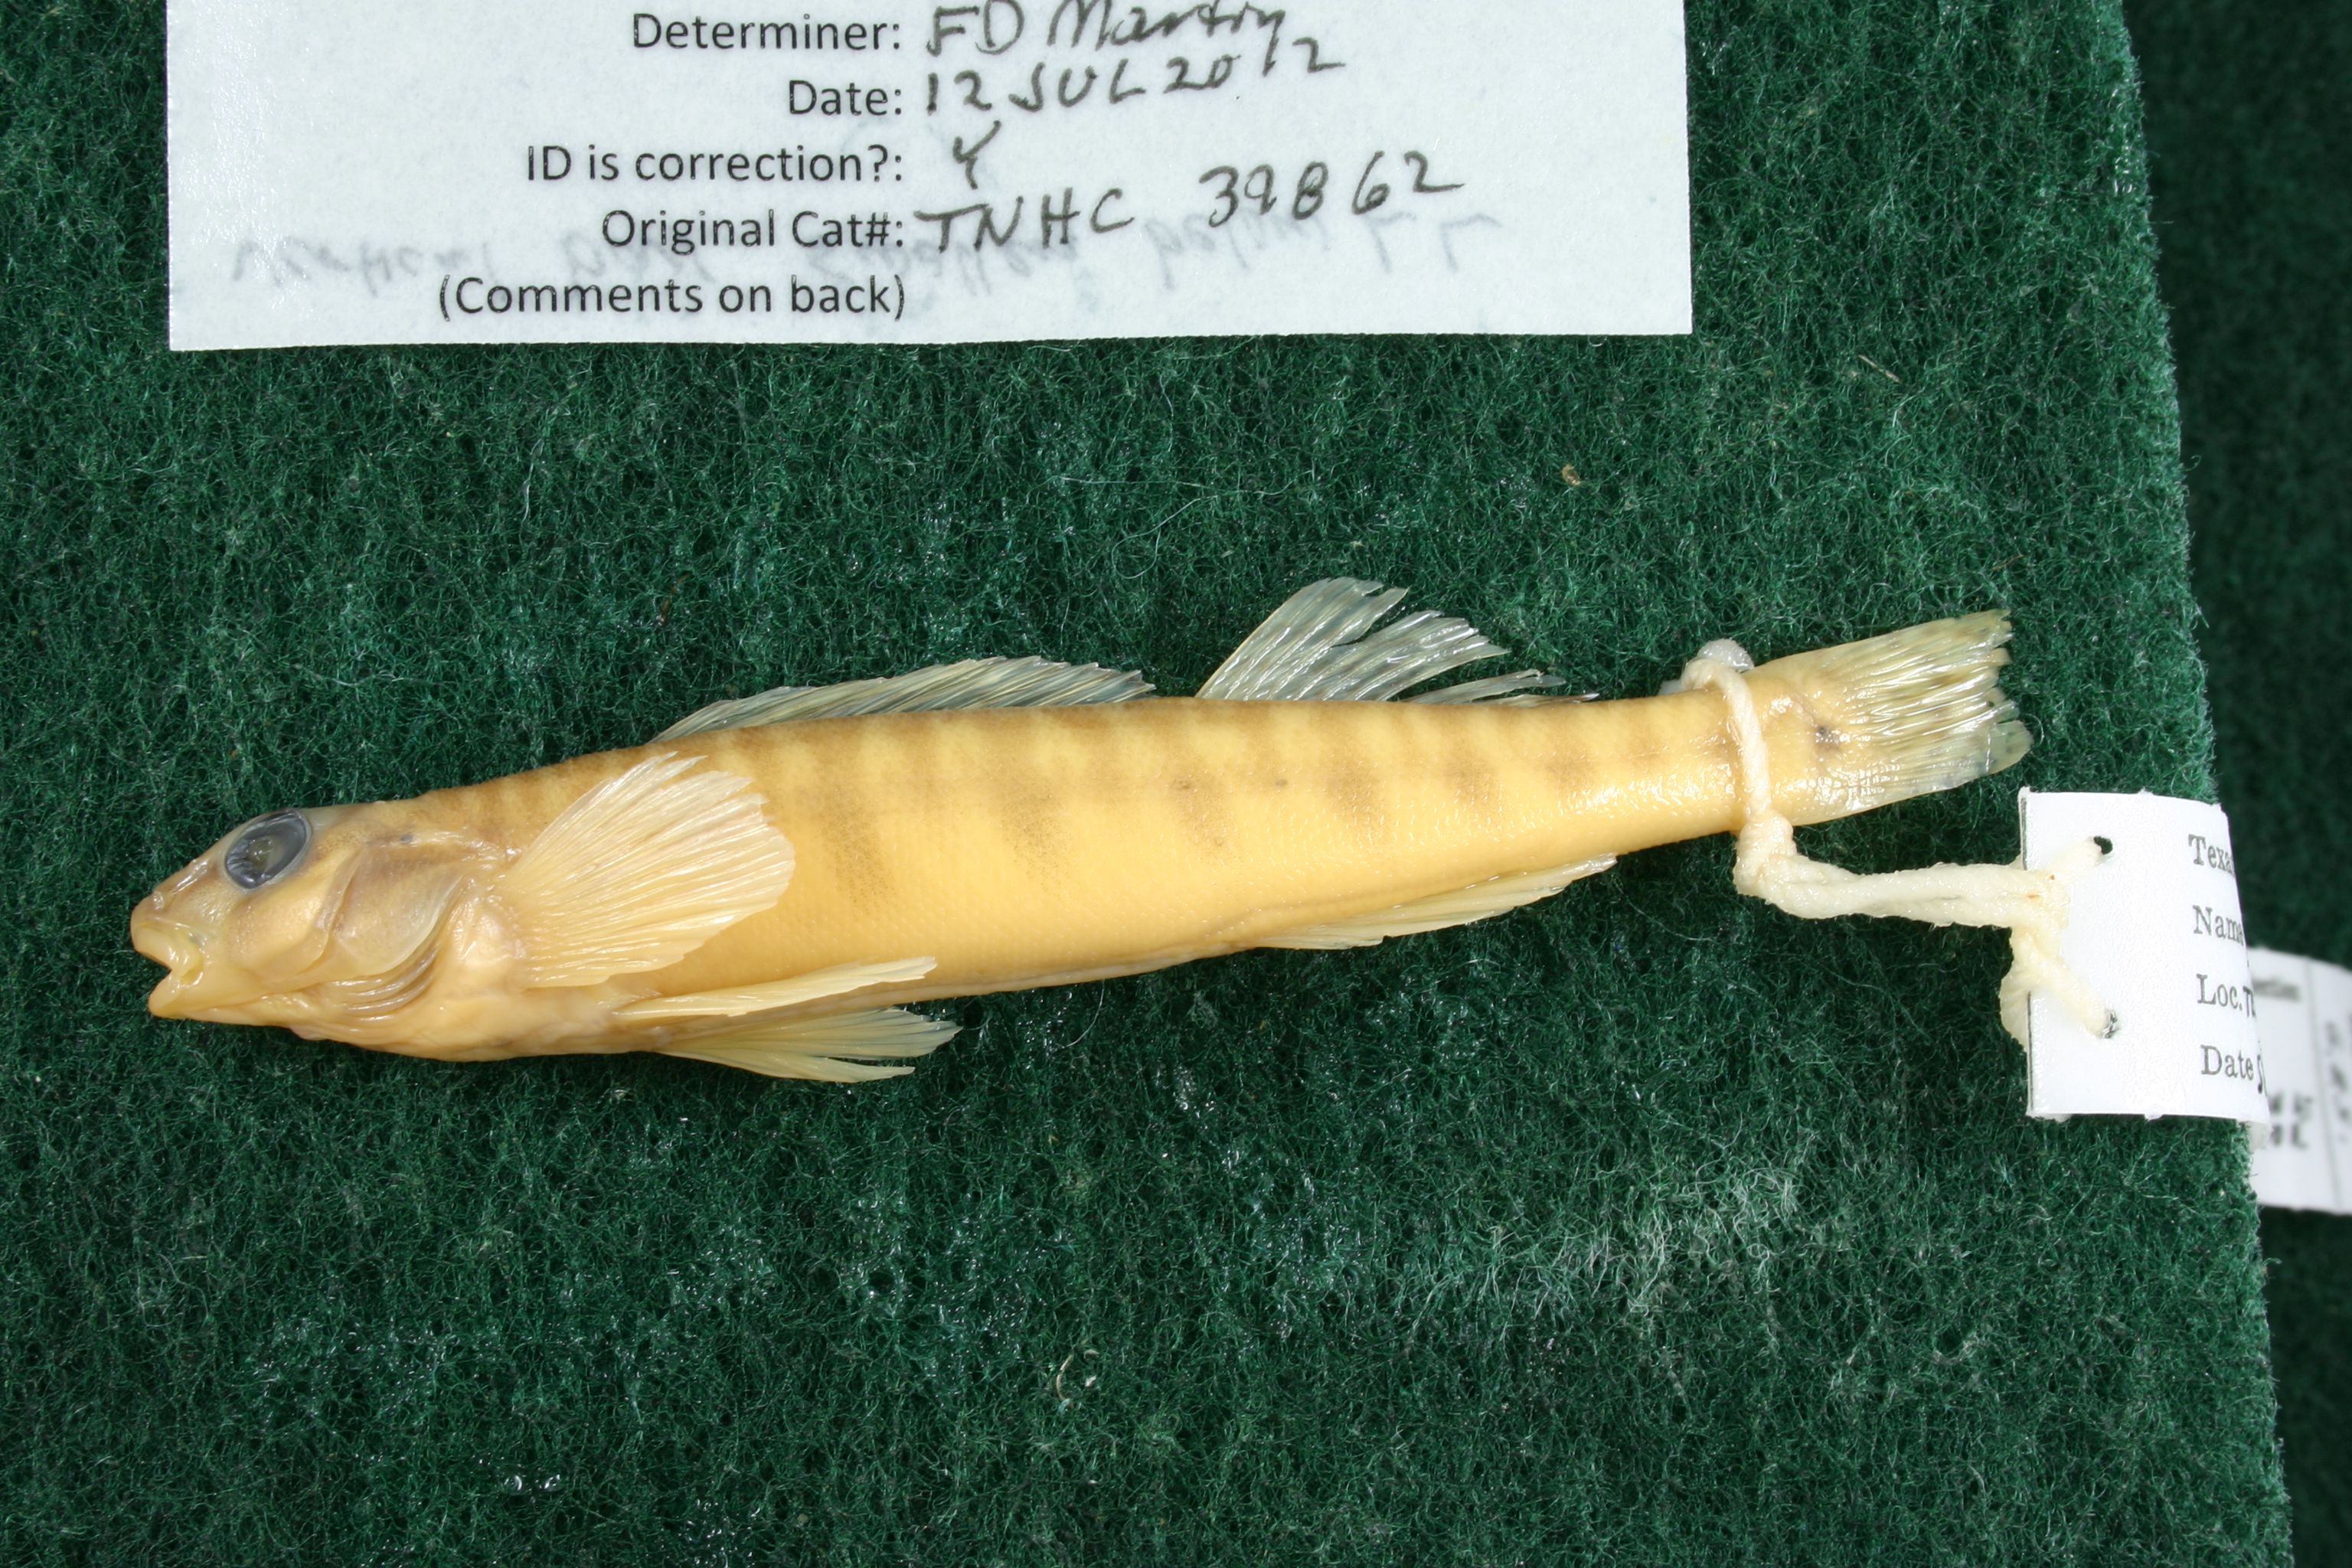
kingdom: Animalia
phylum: Chordata
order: Perciformes
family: Percidae
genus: Percina
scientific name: Percina carbonaria
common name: Texas logperch
